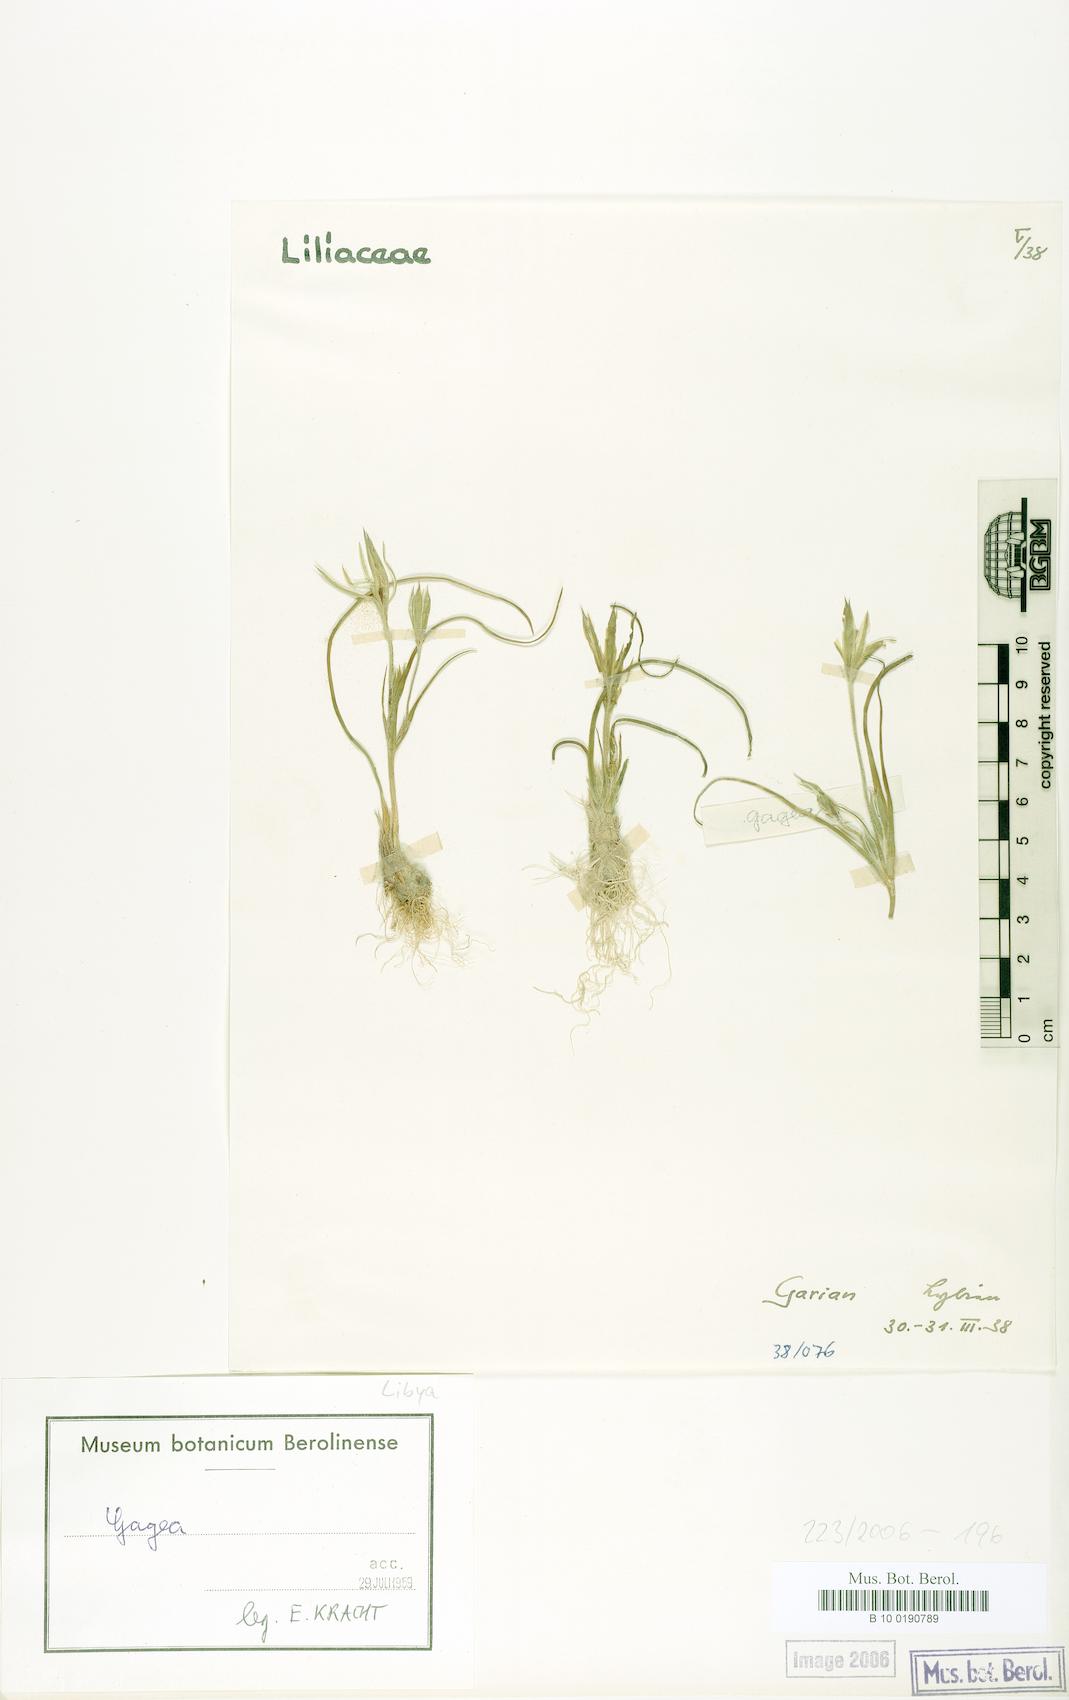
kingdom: Plantae
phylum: Tracheophyta
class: Liliopsida
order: Liliales
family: Liliaceae
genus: Gagea
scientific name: Gagea
